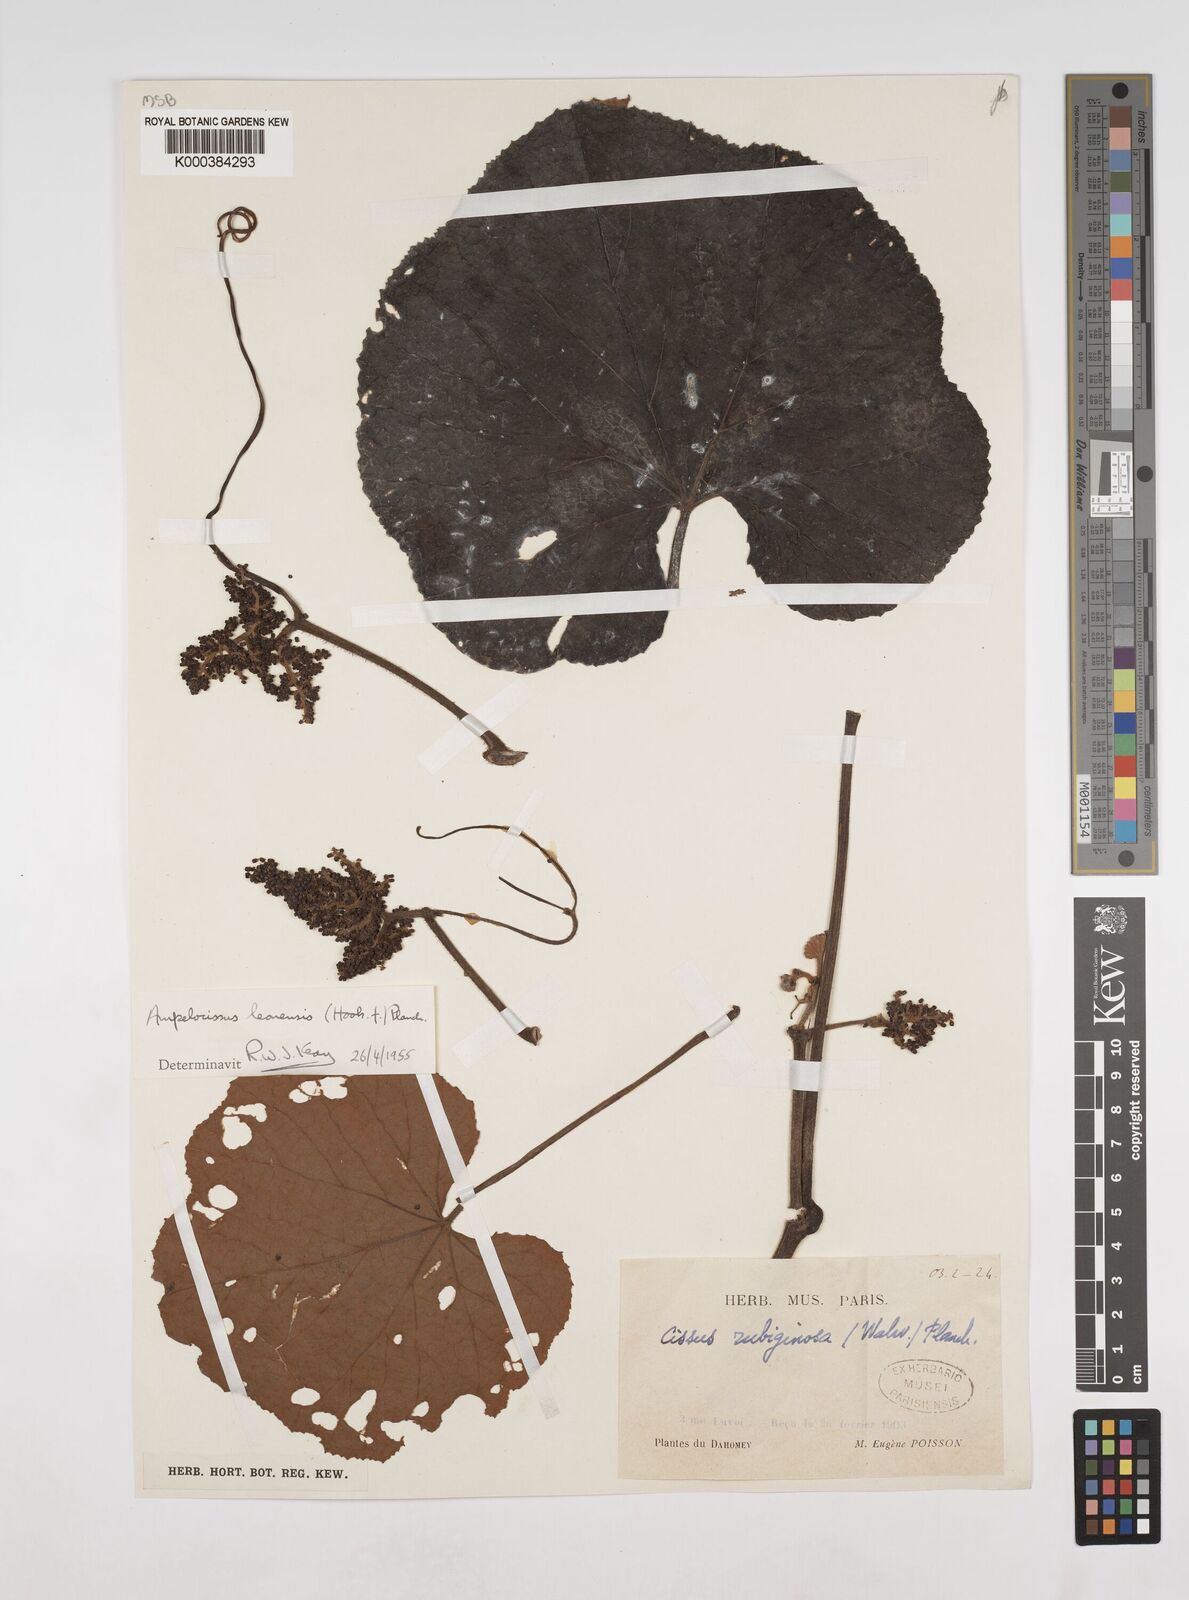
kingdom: Plantae
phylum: Tracheophyta
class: Magnoliopsida
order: Vitales
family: Vitaceae
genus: Ampelocissus
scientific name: Ampelocissus leonensis
